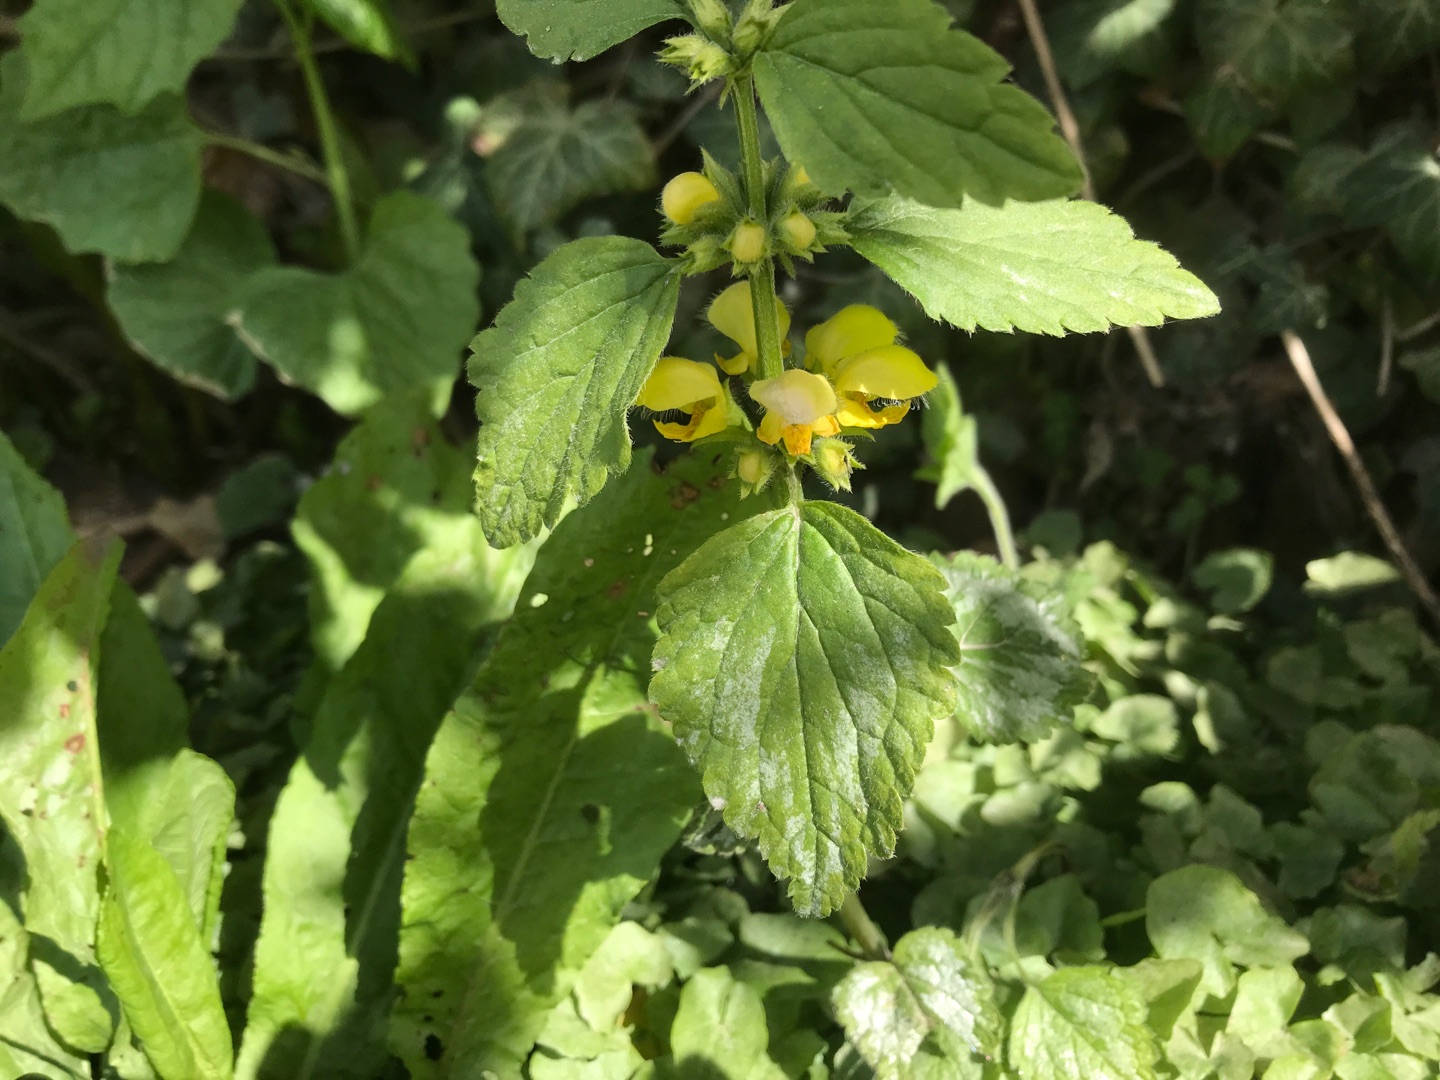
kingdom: Plantae
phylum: Tracheophyta
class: Magnoliopsida
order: Lamiales
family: Lamiaceae
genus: Lamium
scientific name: Lamium galeobdolon
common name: Have-guldnælde
